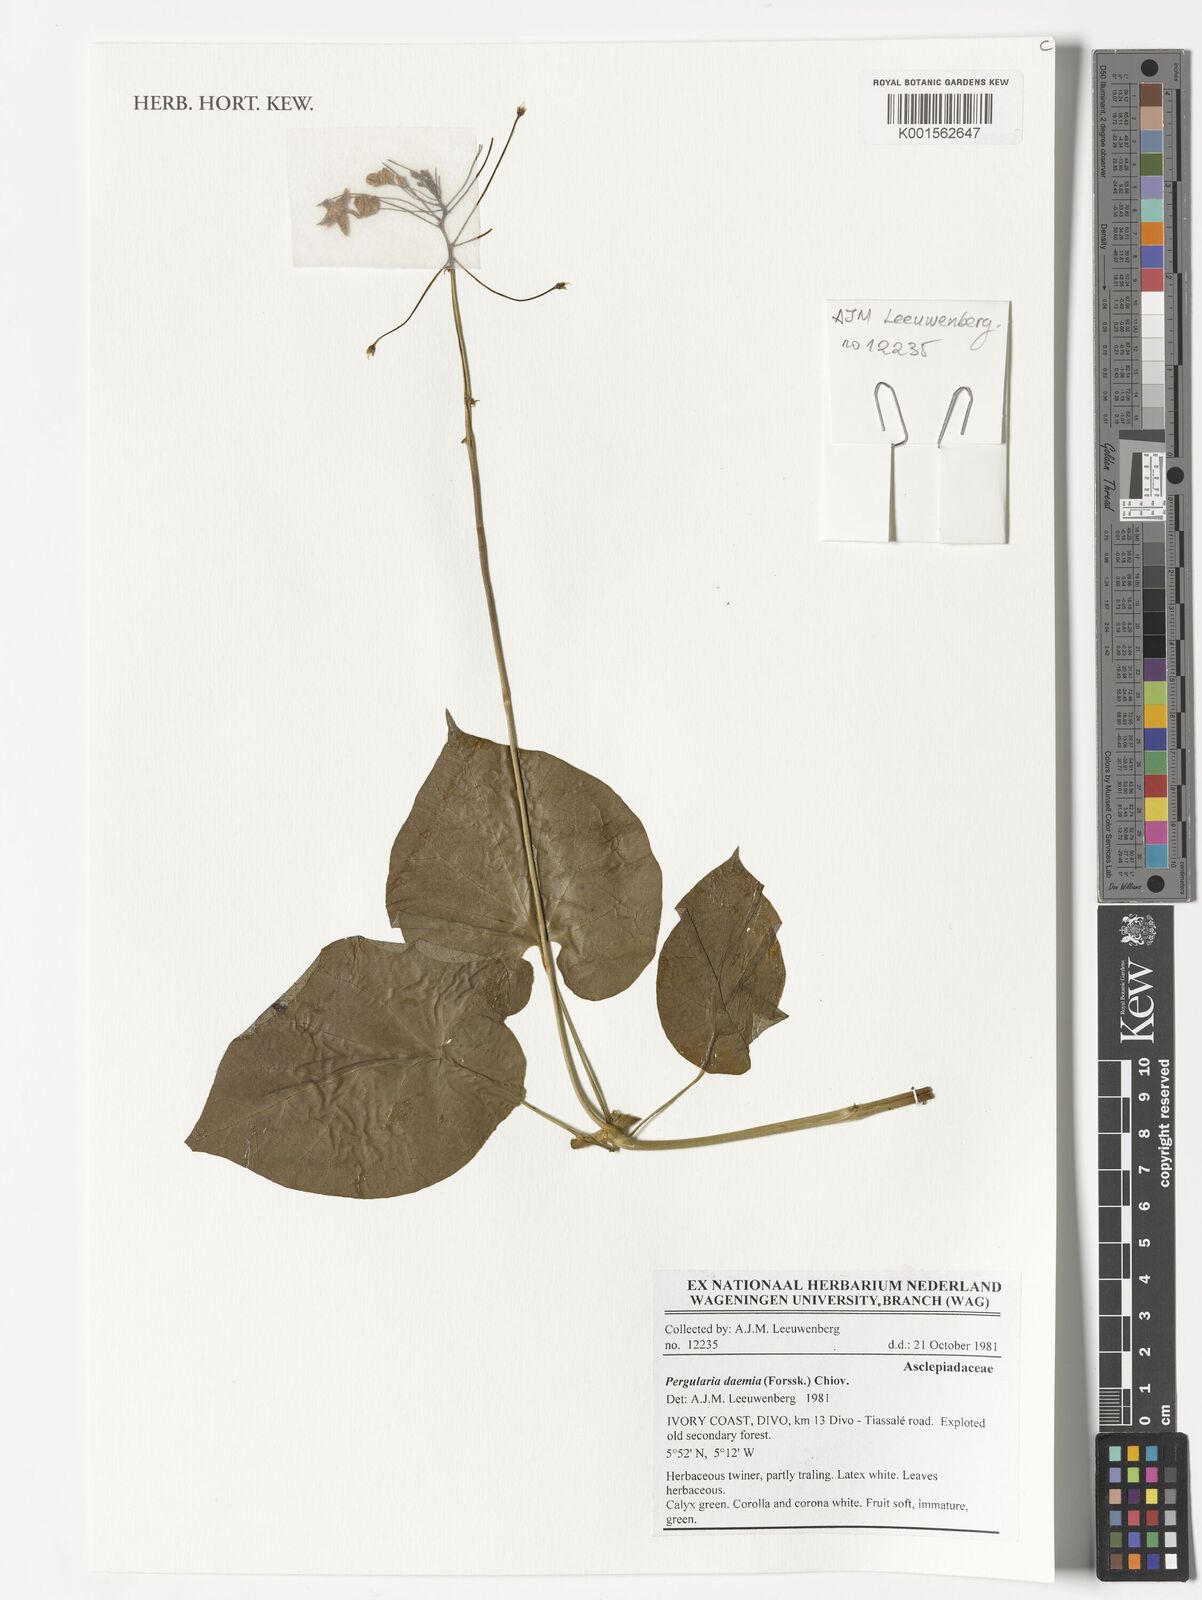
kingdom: Plantae
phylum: Tracheophyta
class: Magnoliopsida
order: Gentianales
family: Apocynaceae
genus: Pergularia
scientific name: Pergularia daemia
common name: Trellis-vine
